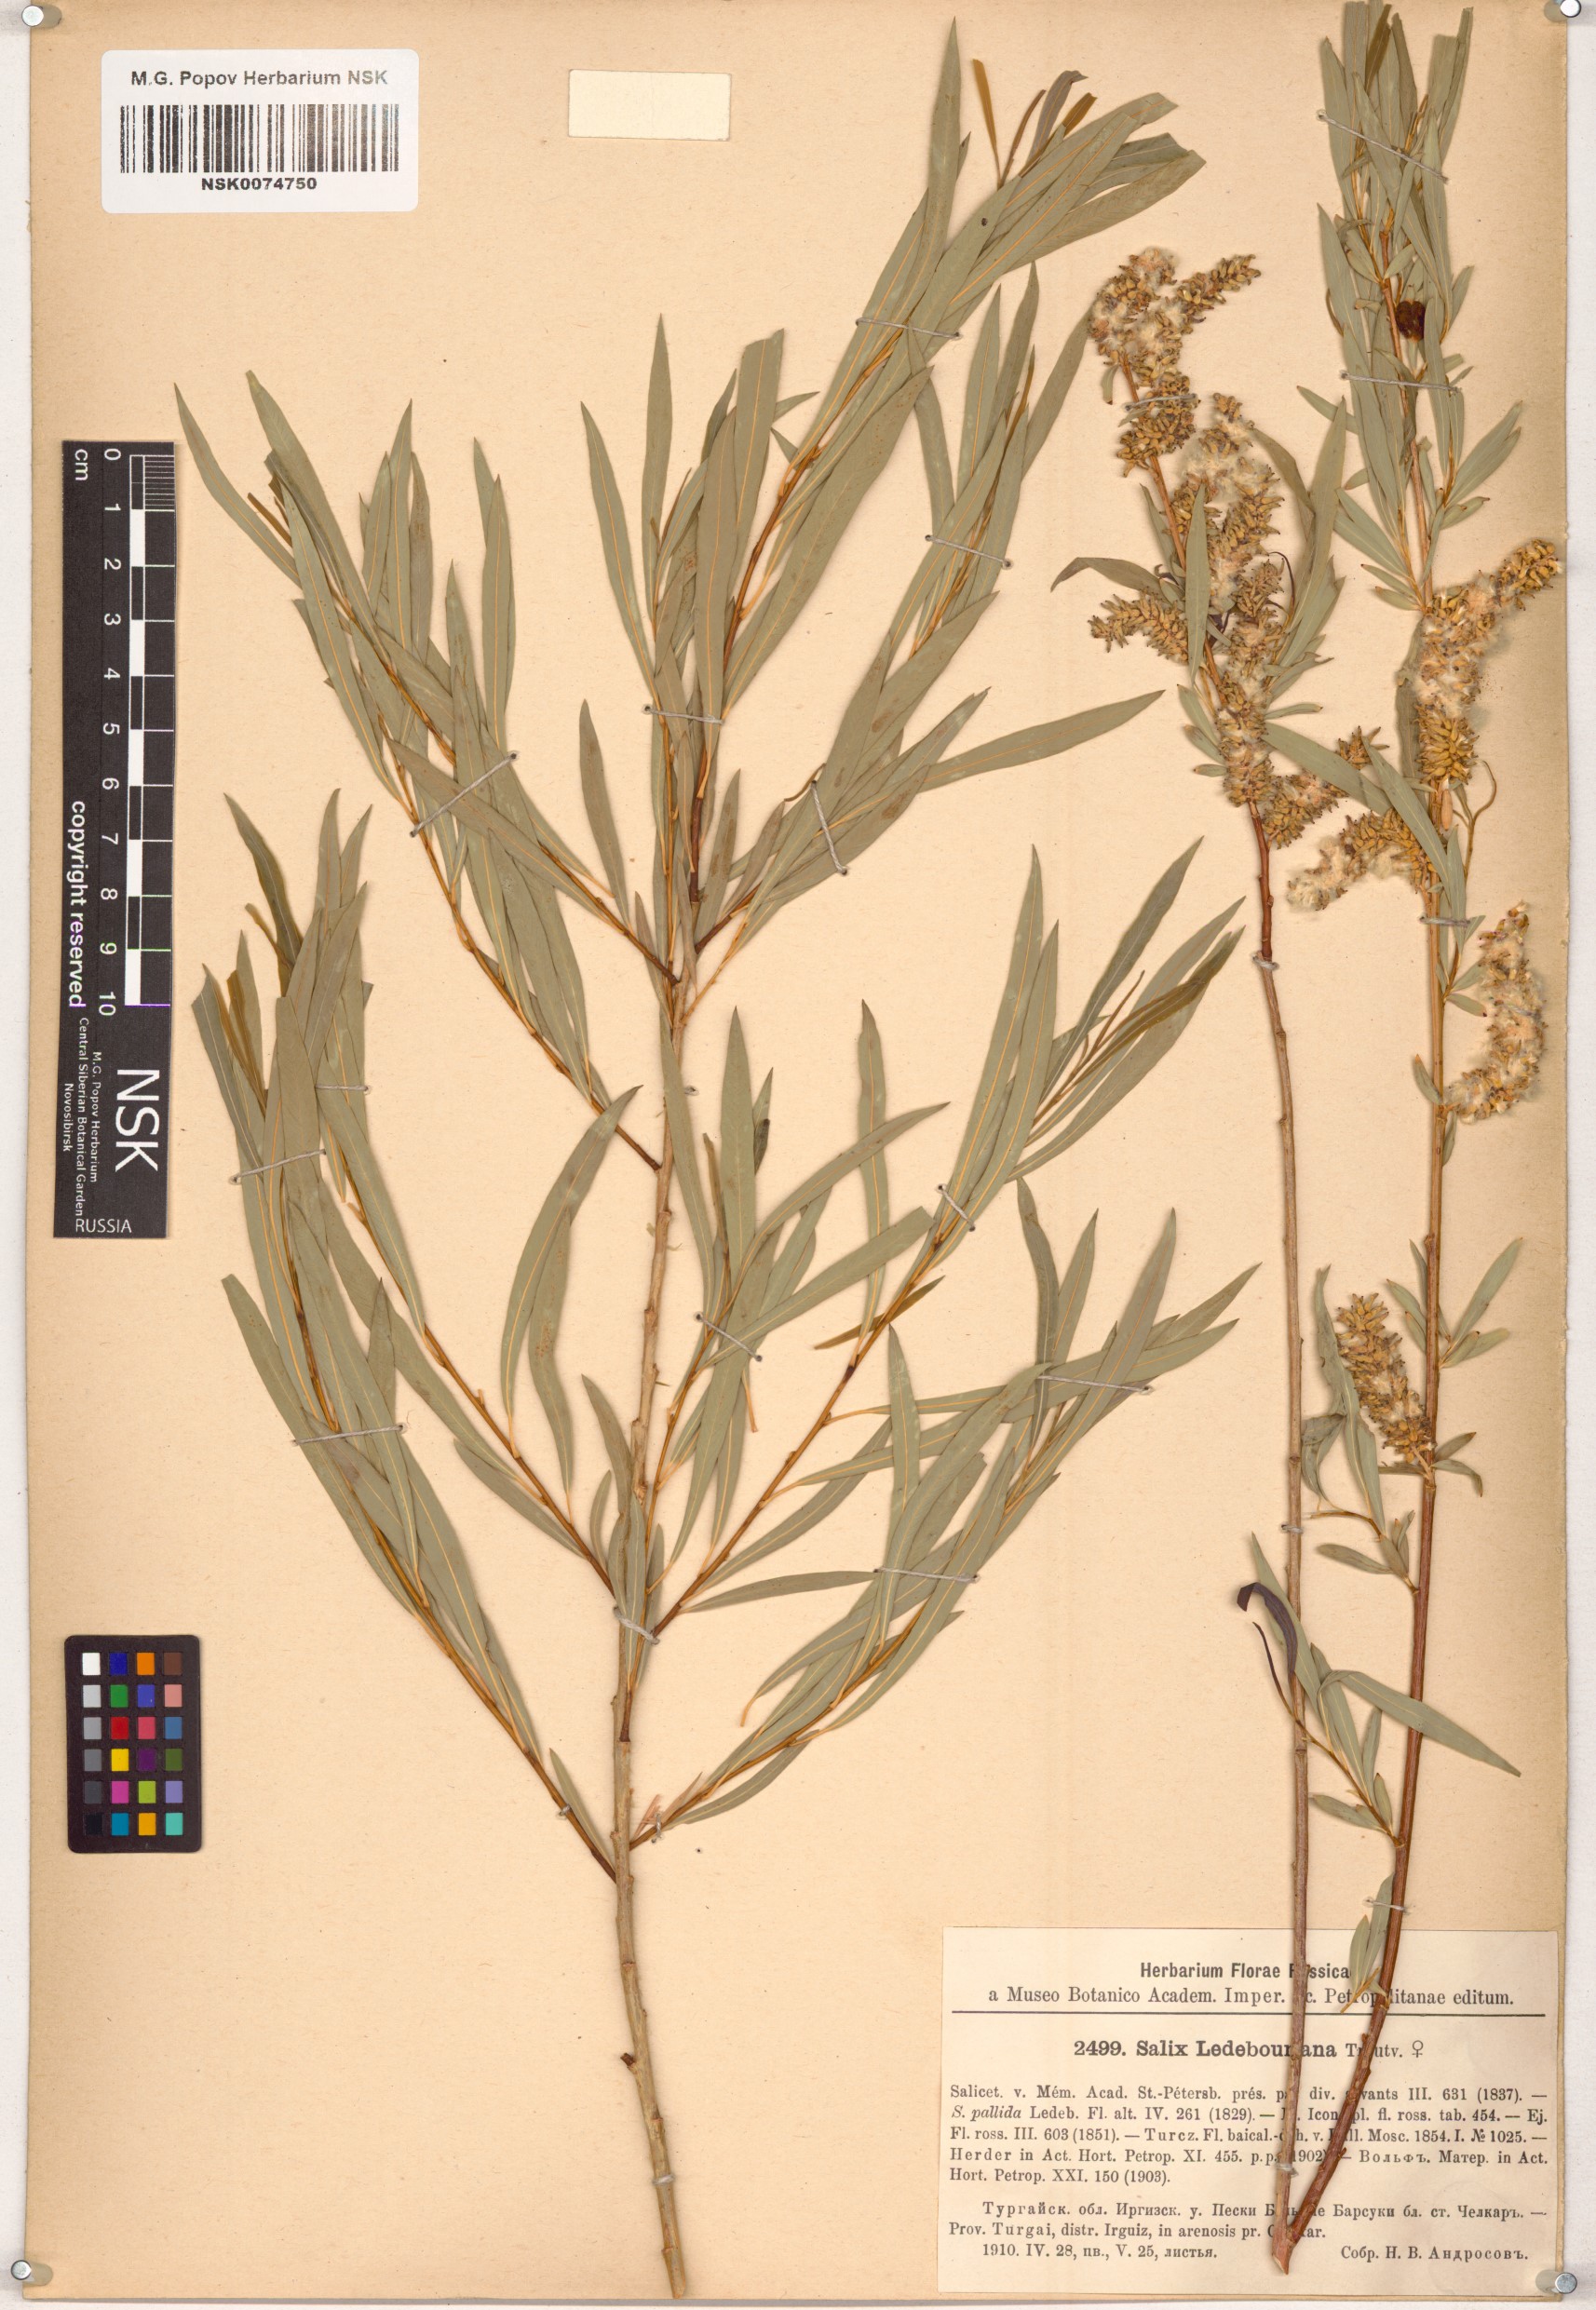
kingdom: Plantae
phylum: Tracheophyta
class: Magnoliopsida
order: Malpighiales
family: Salicaceae
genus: Salix
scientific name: Salix ledebouriana
